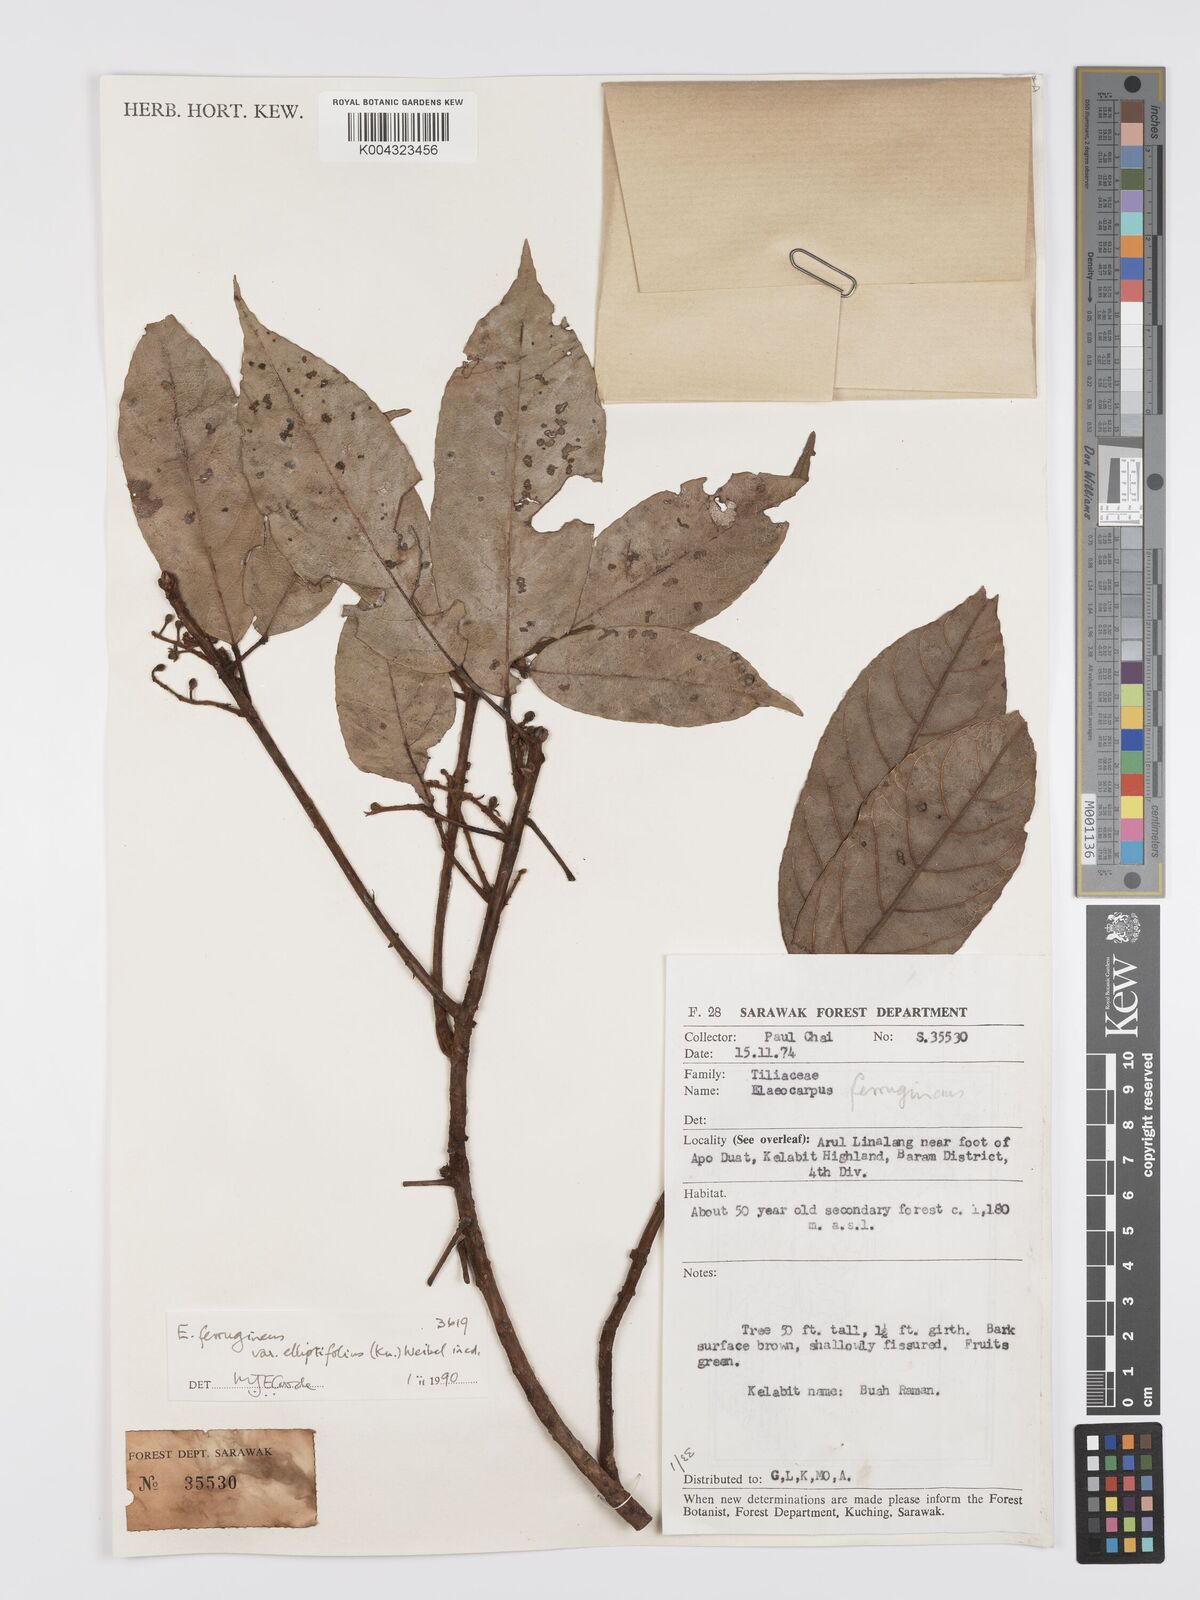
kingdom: Plantae
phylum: Tracheophyta
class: Magnoliopsida
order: Oxalidales
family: Elaeocarpaceae
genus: Elaeocarpus
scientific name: Elaeocarpus ferrugineus
